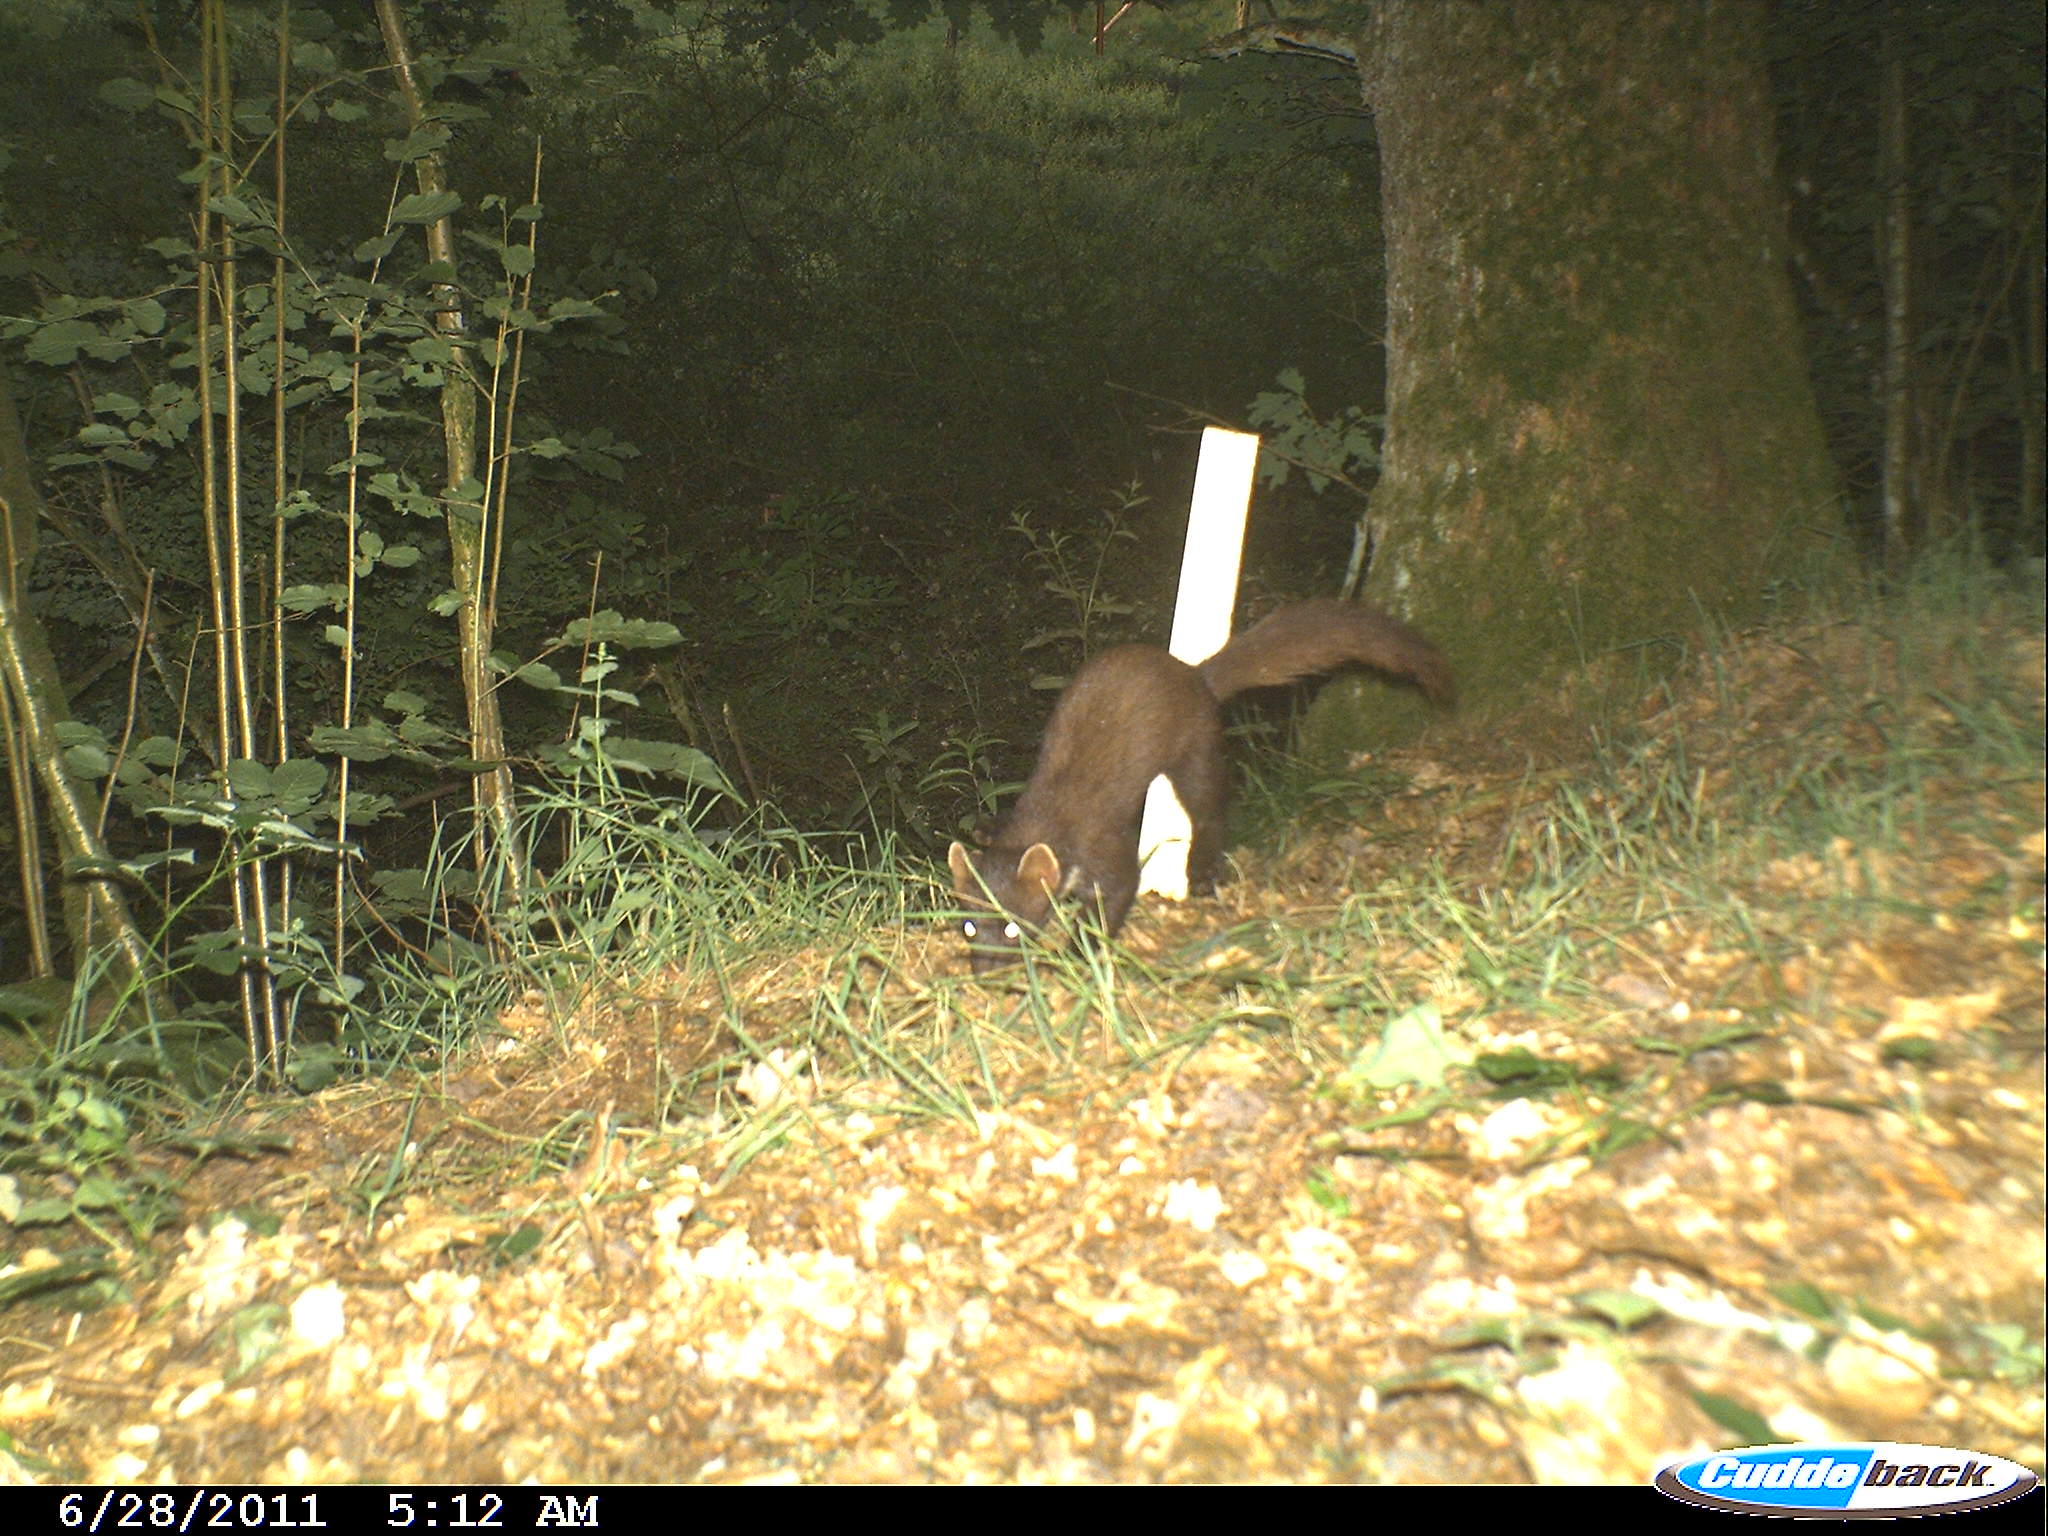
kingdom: Animalia
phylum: Chordata
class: Mammalia
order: Carnivora
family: Mustelidae
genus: Martes
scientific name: Martes martes
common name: European pine marten
